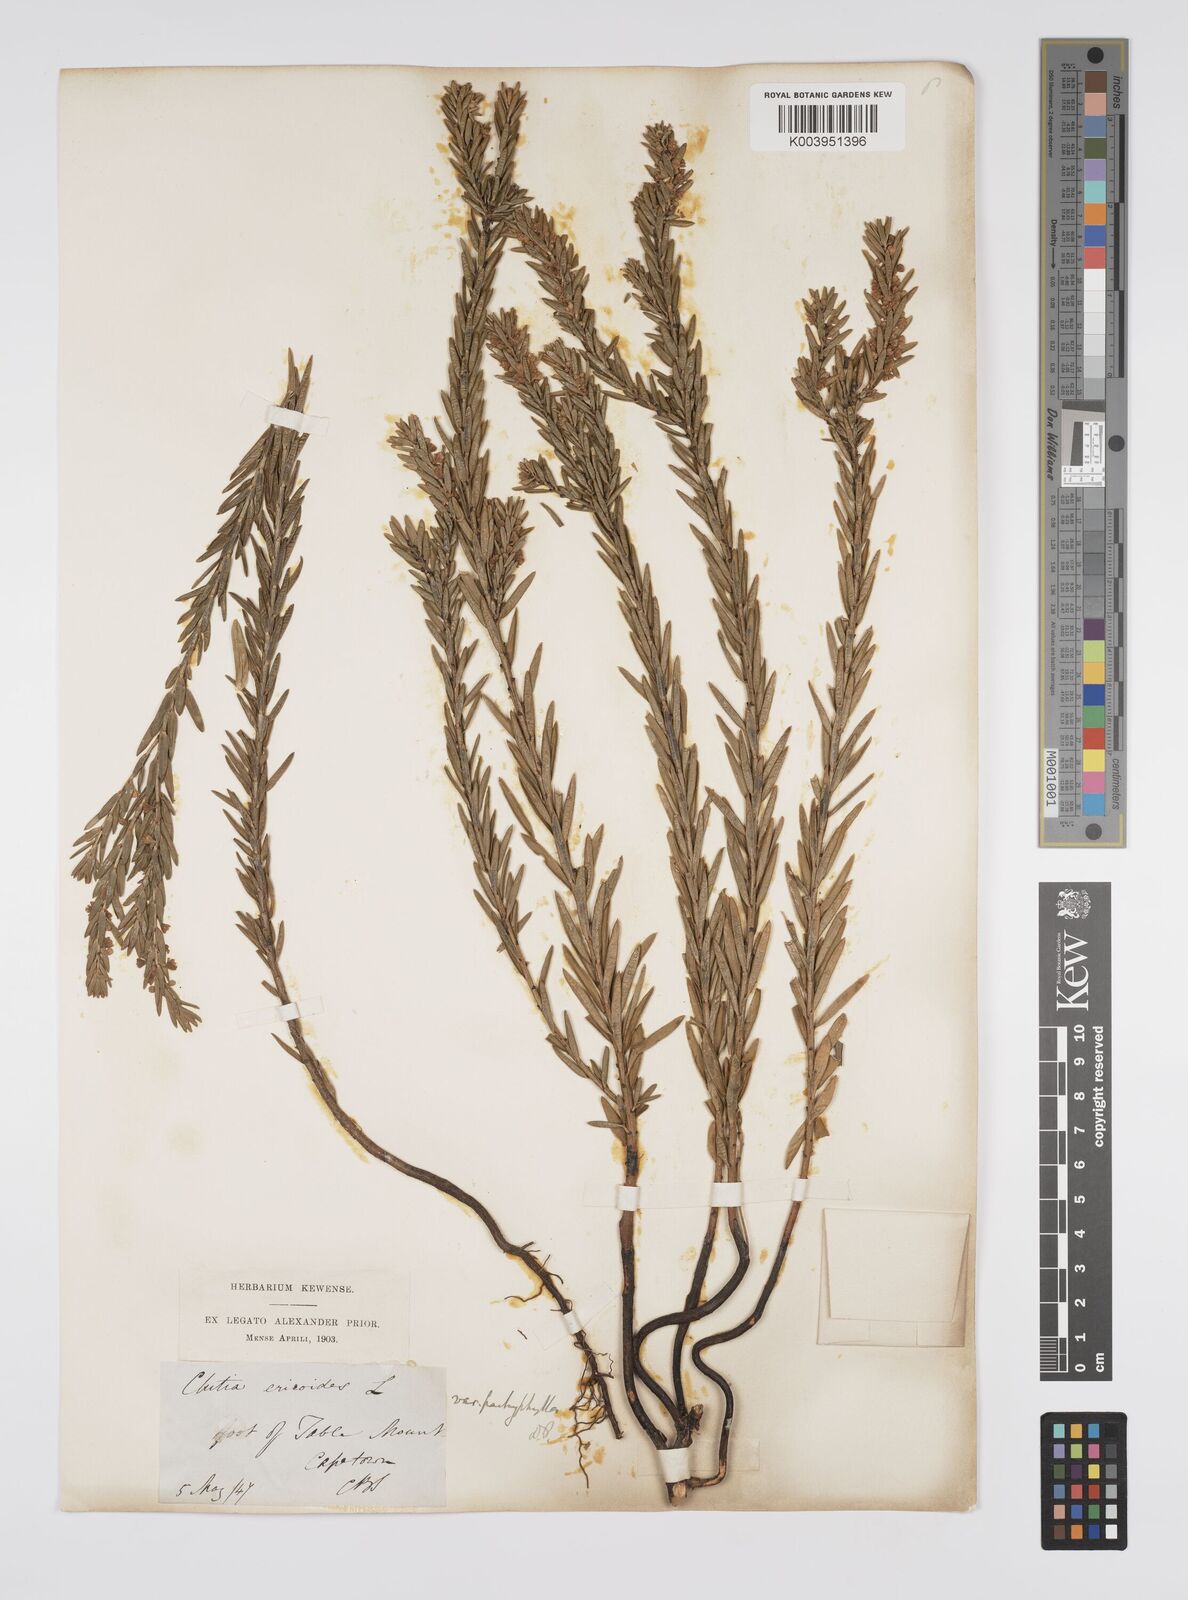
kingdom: Plantae
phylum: Tracheophyta
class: Magnoliopsida
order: Malpighiales
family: Peraceae
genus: Clutia
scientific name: Clutia
